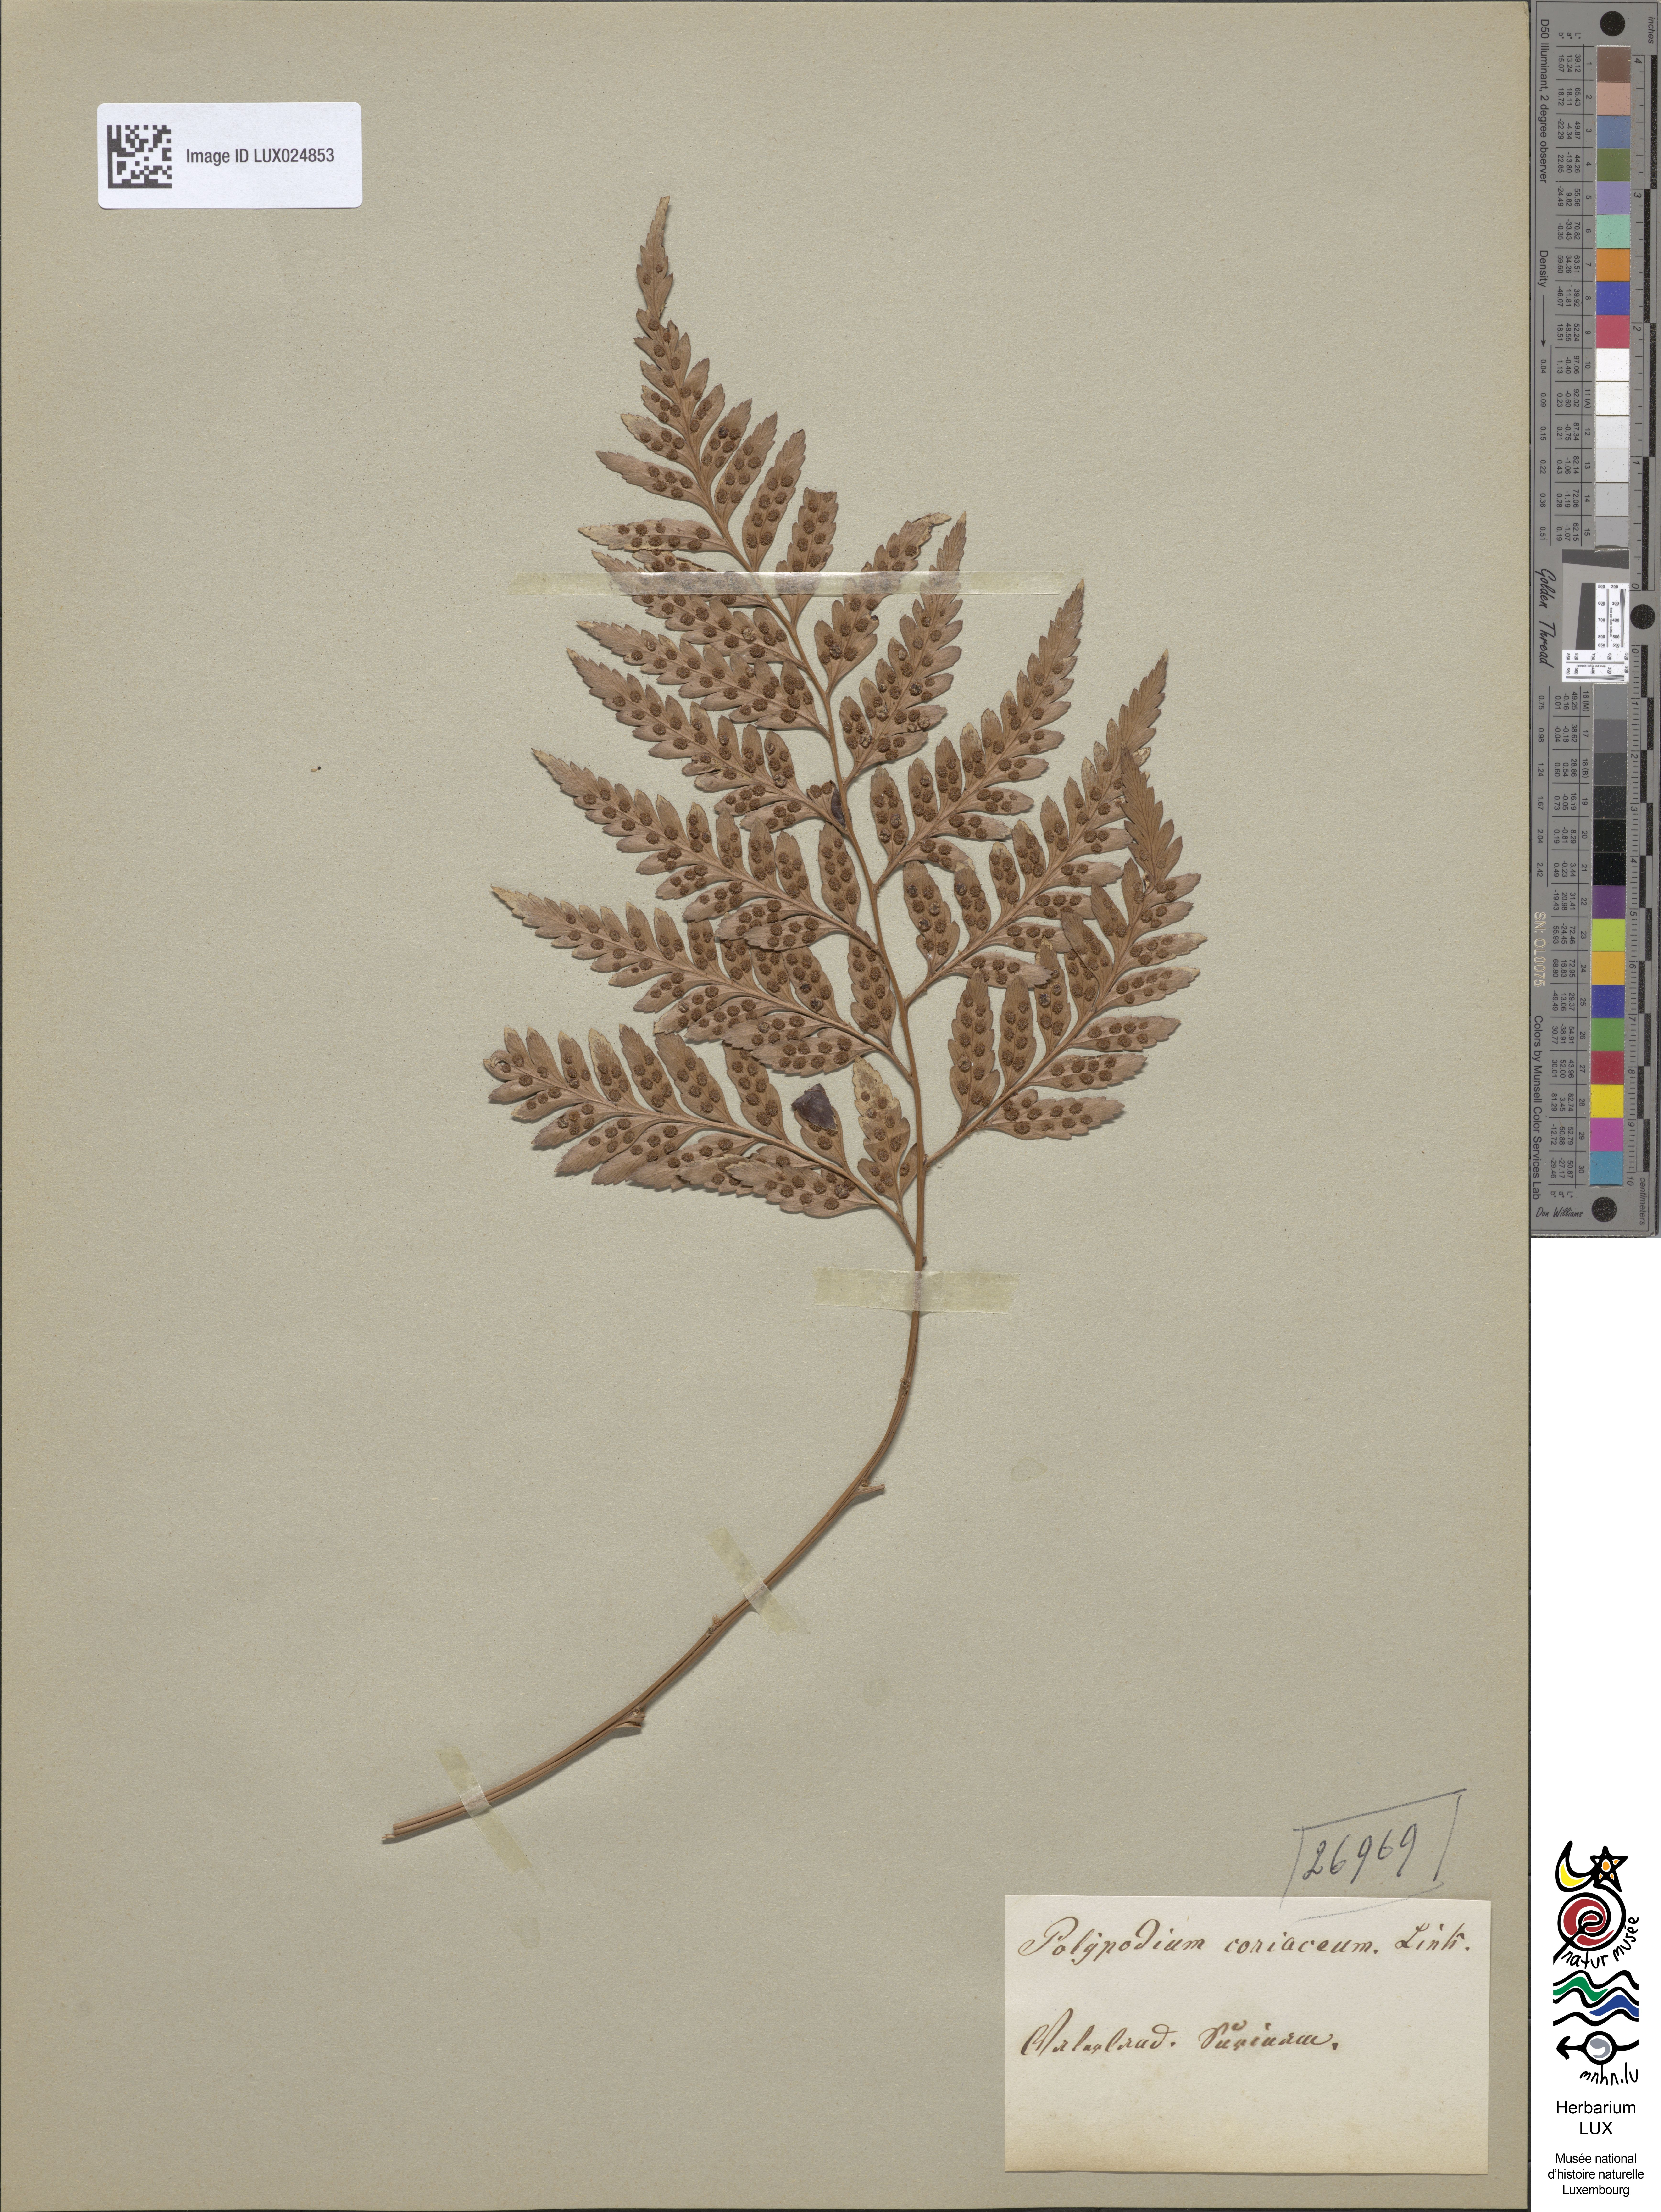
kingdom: Plantae
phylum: Tracheophyta
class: Polypodiopsida
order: Polypodiales
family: Polypodiaceae
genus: Polypodium
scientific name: Polypodium
